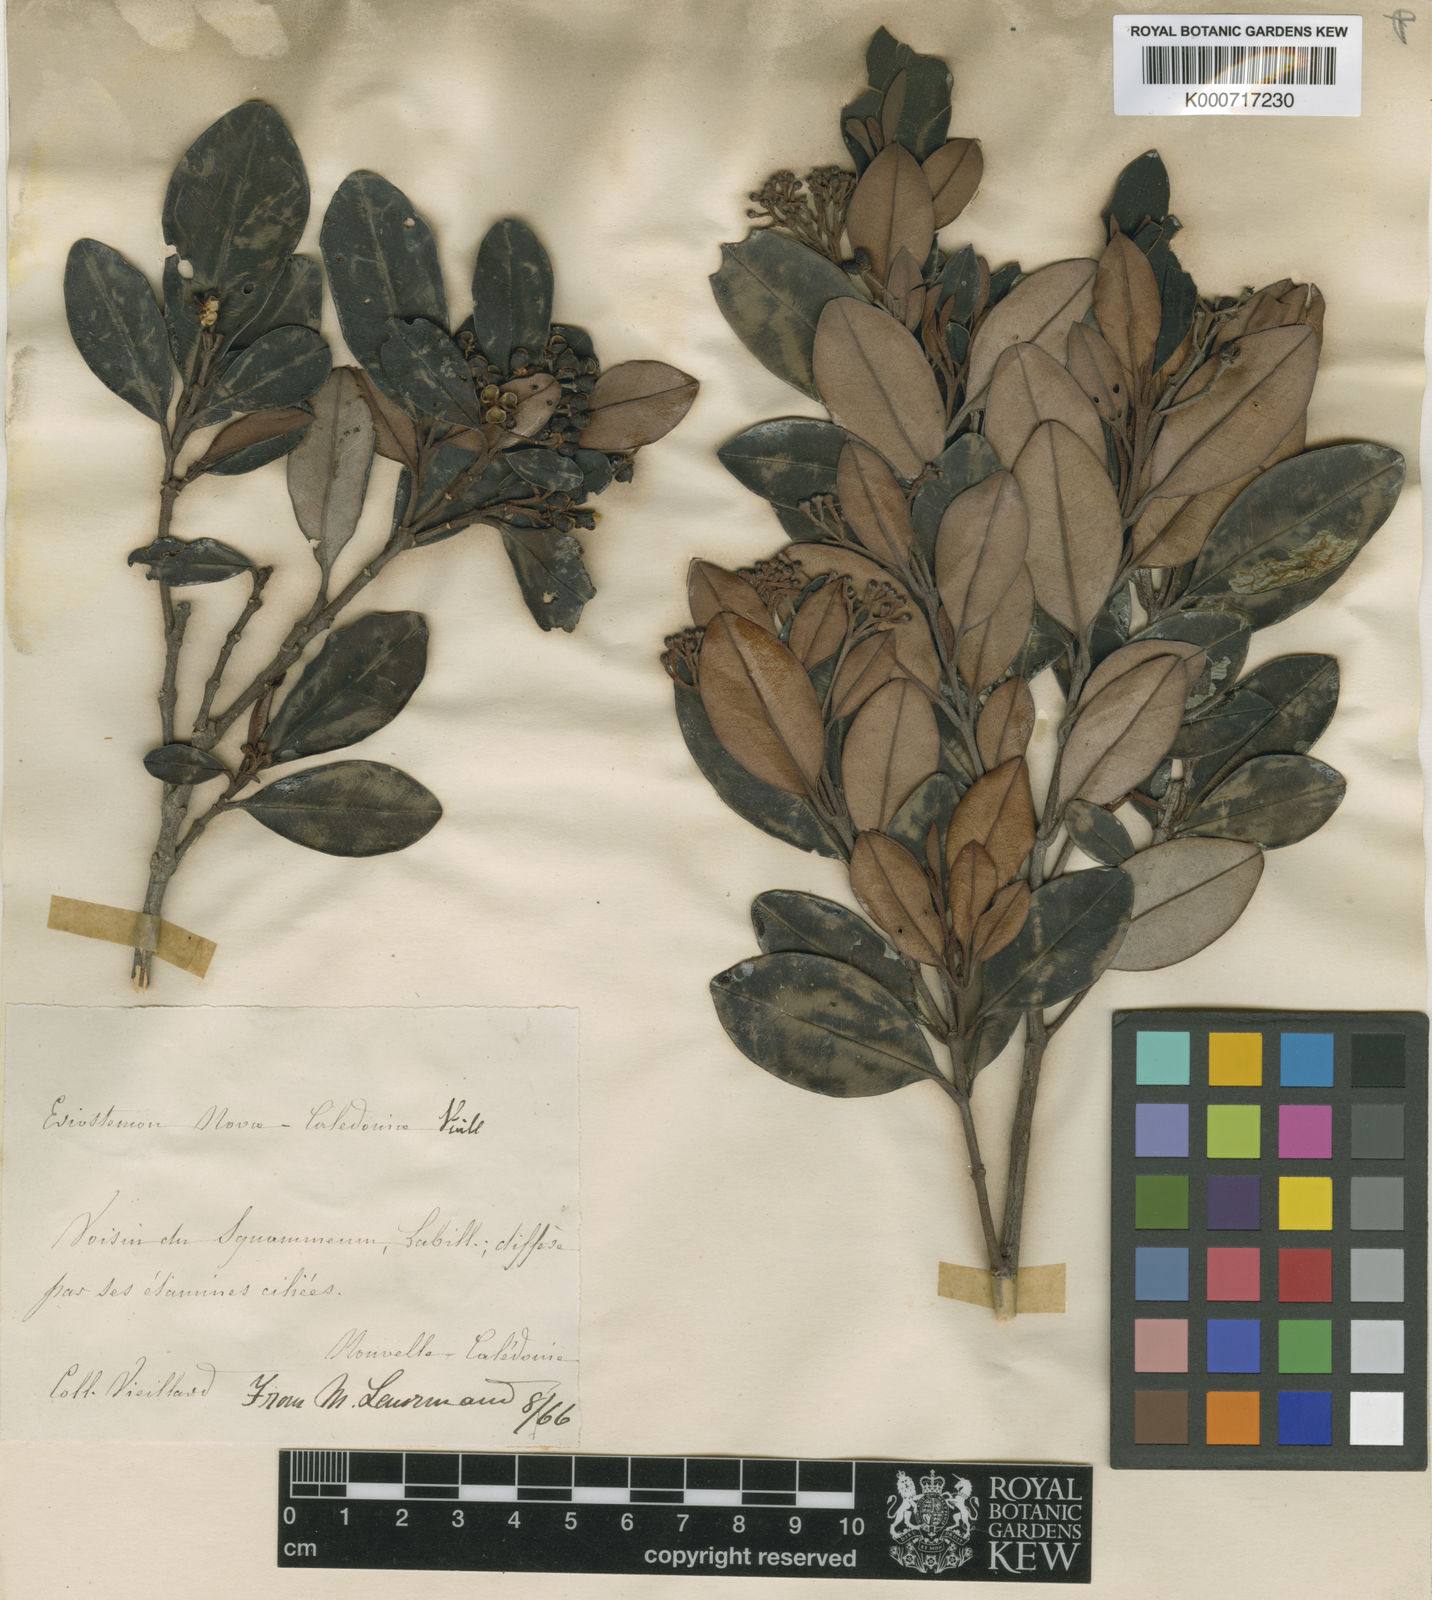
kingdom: Plantae
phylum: Tracheophyta
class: Magnoliopsida
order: Sapindales
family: Rutaceae
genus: Myrtopsis
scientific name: Myrtopsis
